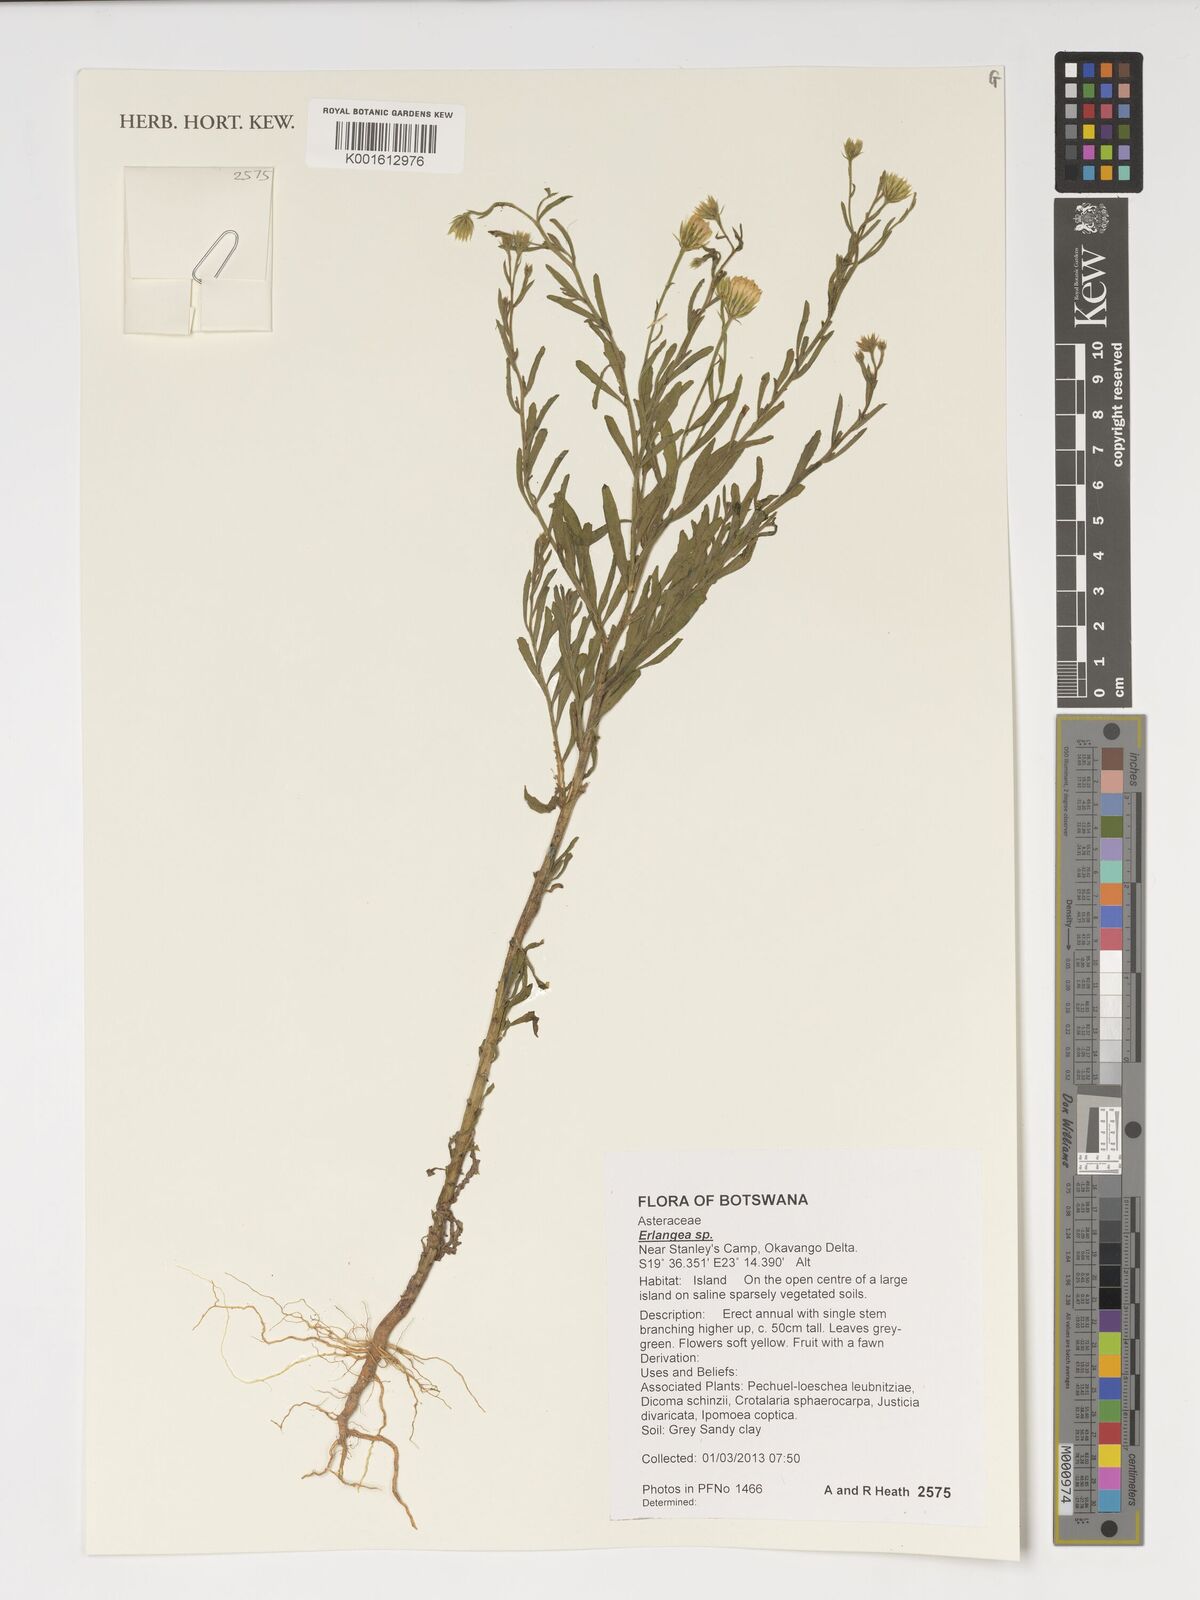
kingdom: Plantae
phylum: Tracheophyta
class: Magnoliopsida
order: Asterales
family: Asteraceae
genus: Erlangea
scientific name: Erlangea
